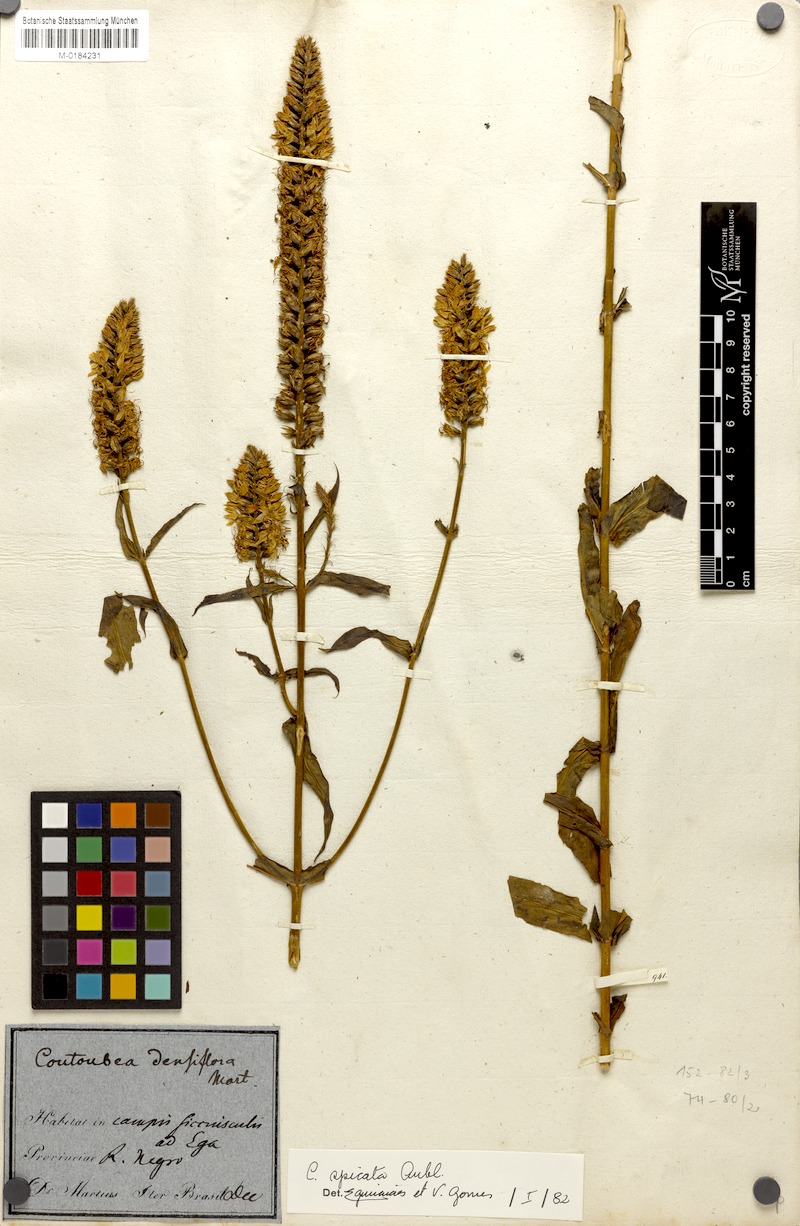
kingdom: Plantae
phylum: Tracheophyta
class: Magnoliopsida
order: Gentianales
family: Gentianaceae
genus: Coutoubea
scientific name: Coutoubea spicata
